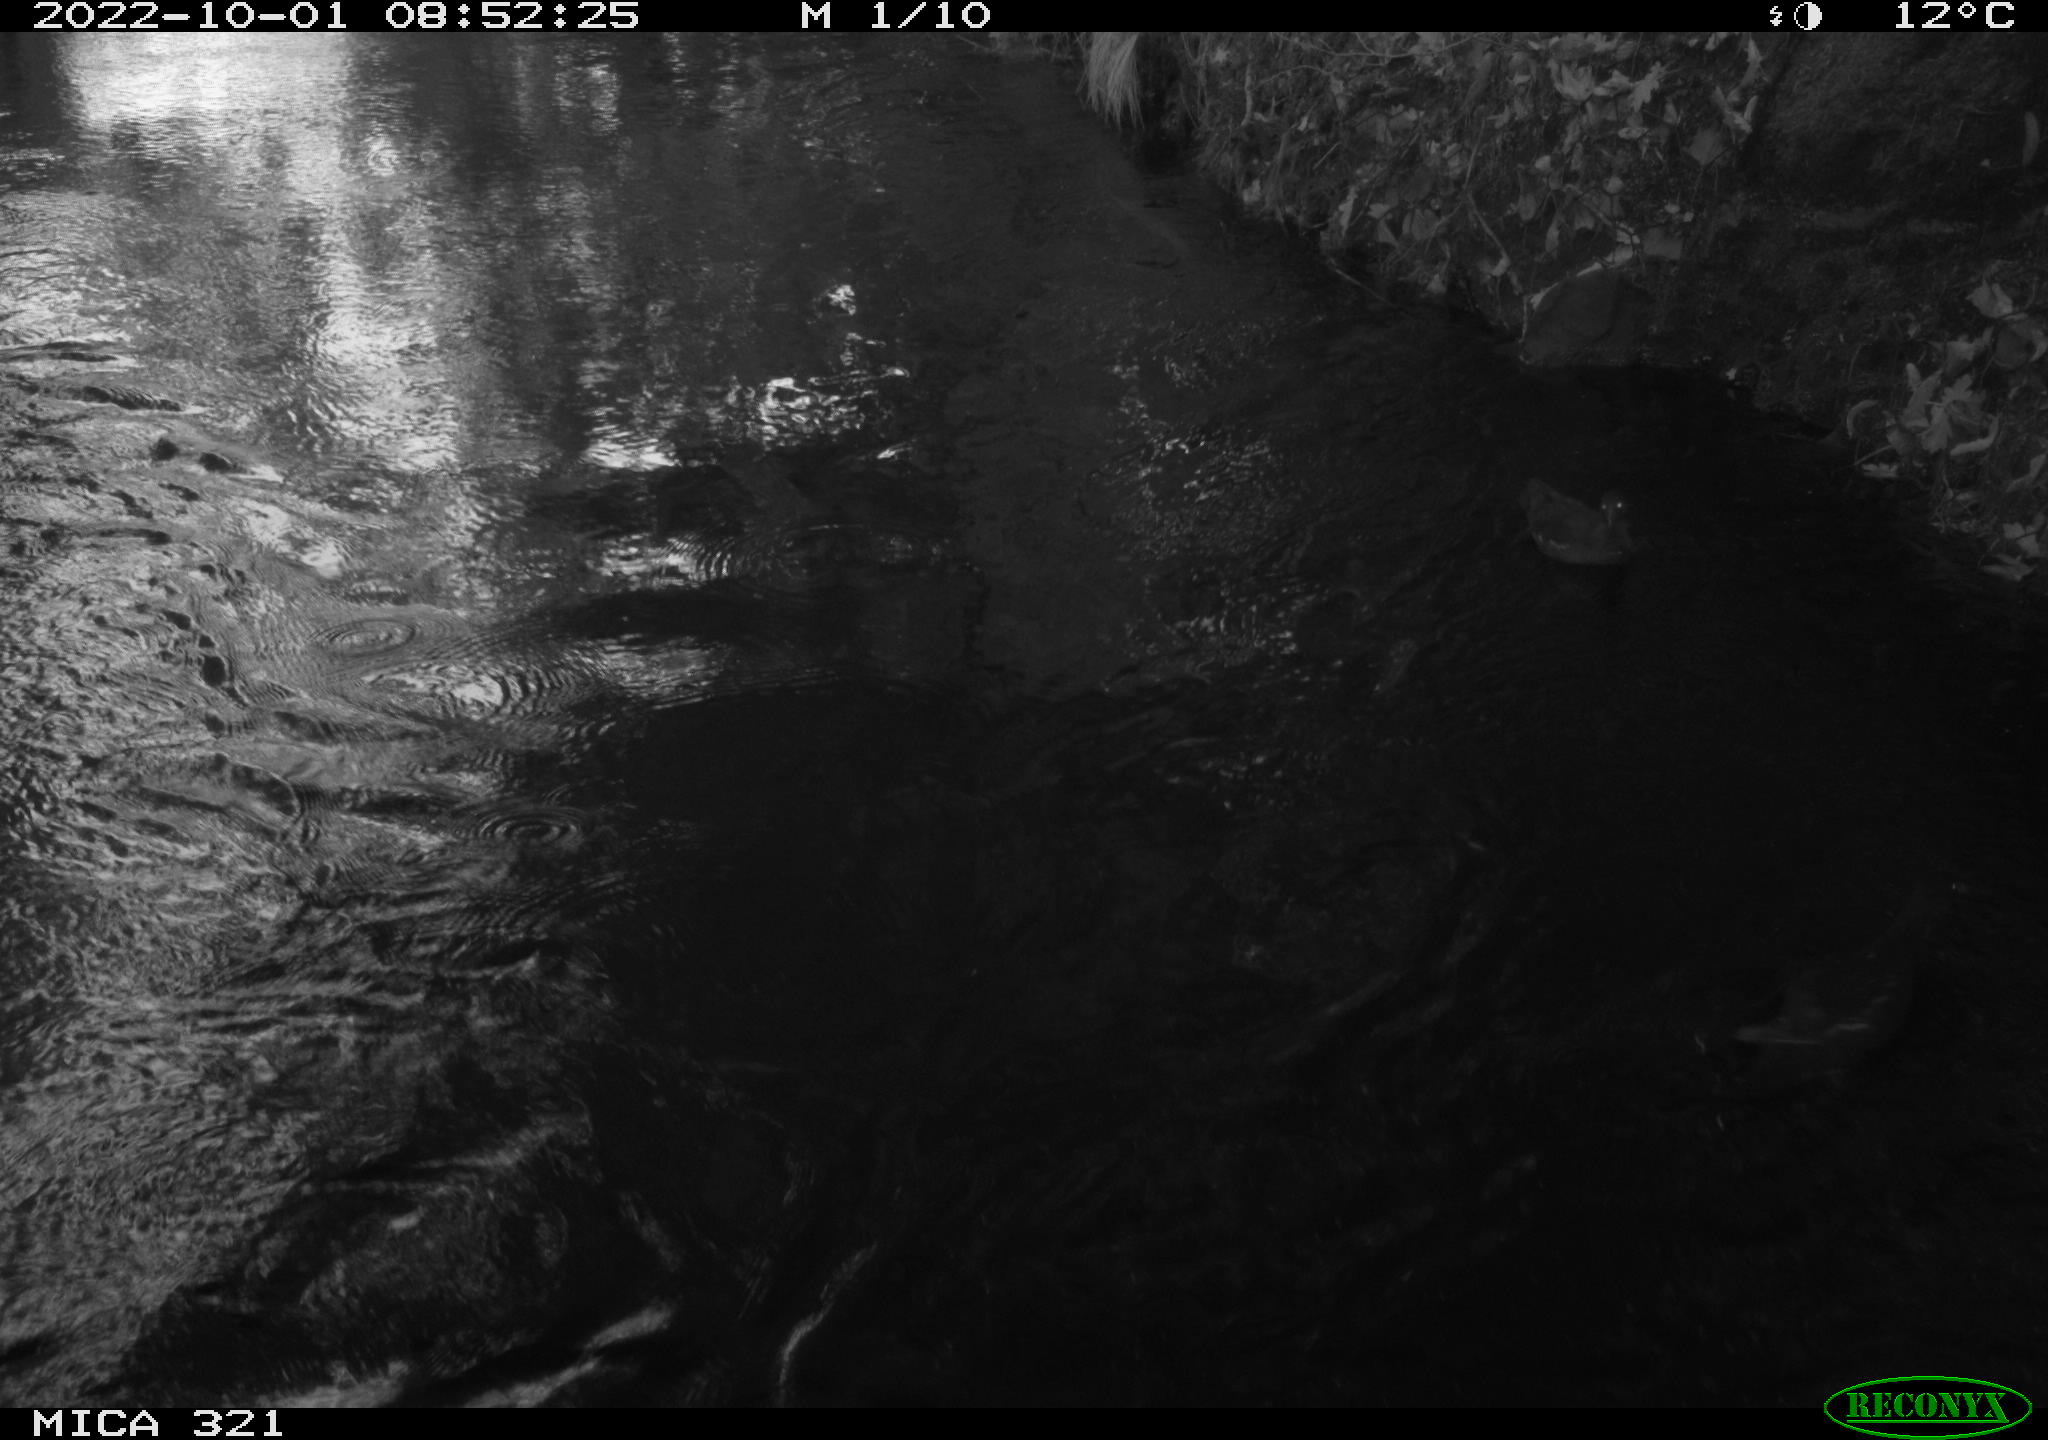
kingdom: Animalia
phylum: Chordata
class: Aves
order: Gruiformes
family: Rallidae
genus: Gallinula
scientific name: Gallinula chloropus
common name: Common moorhen
